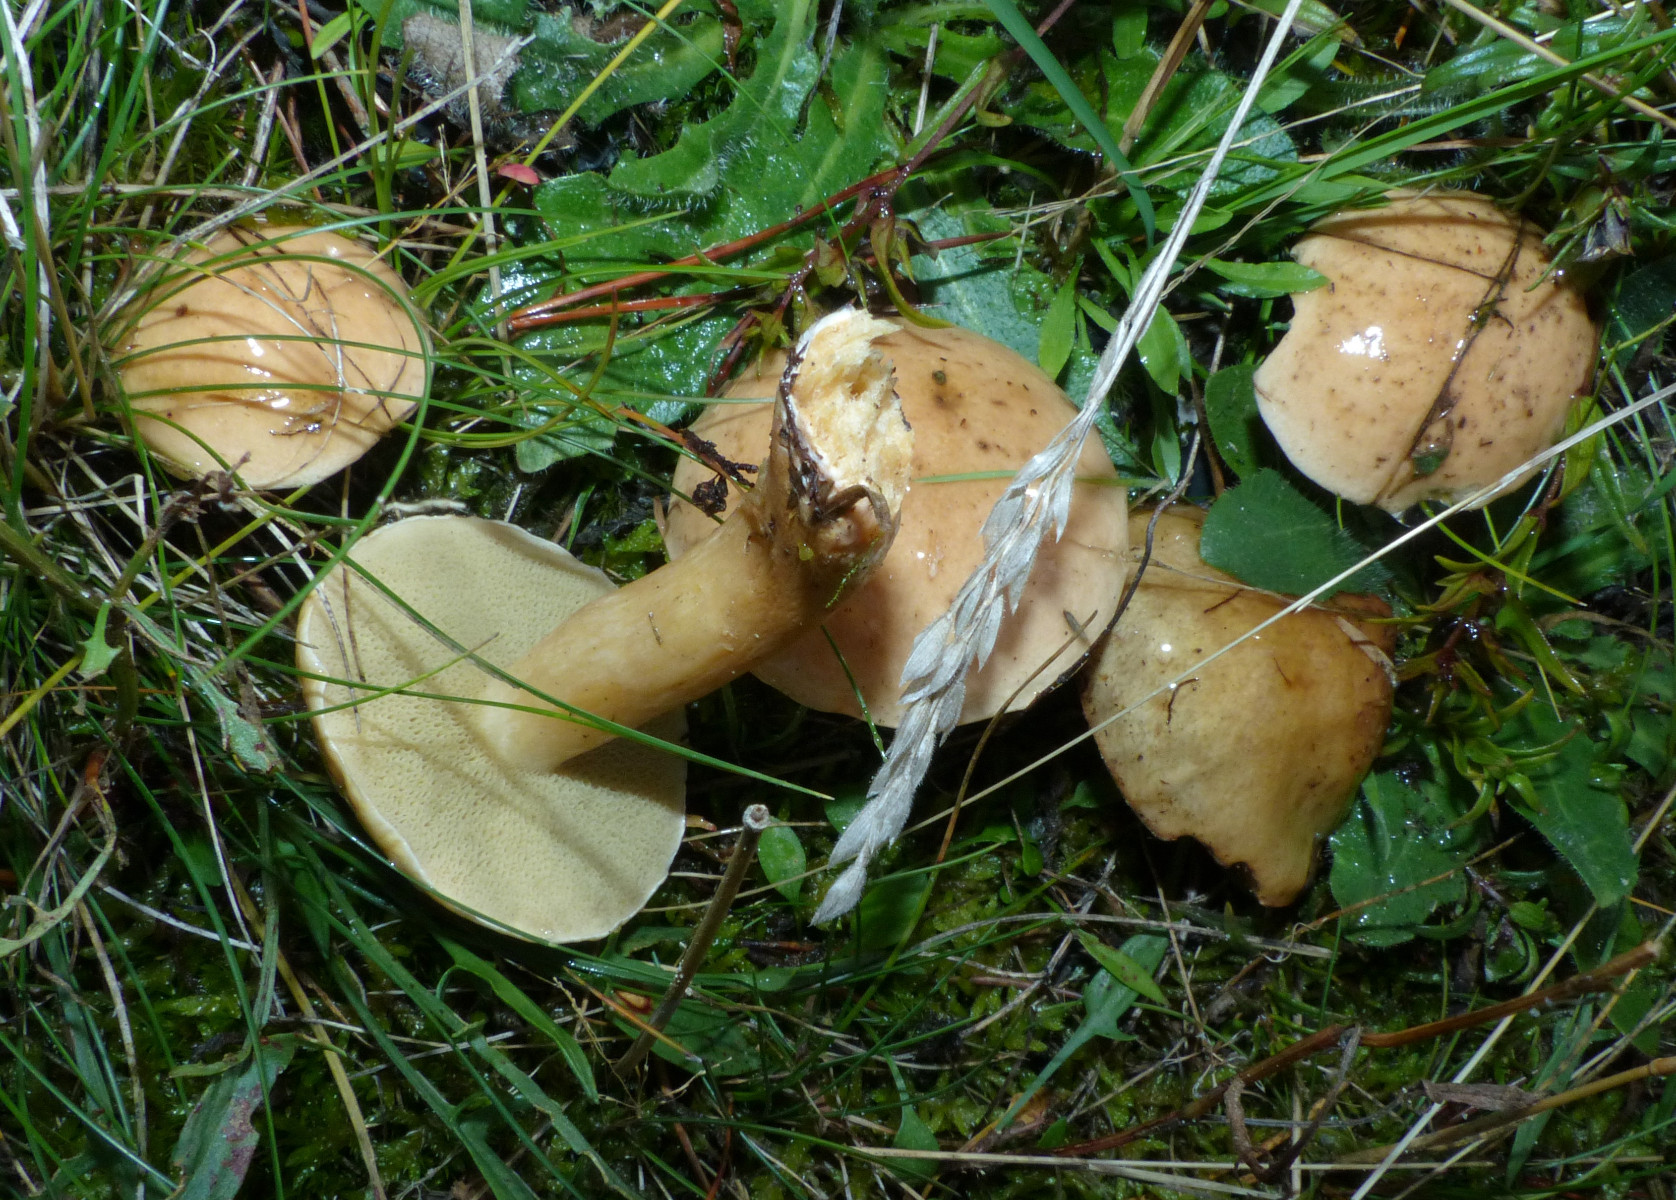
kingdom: Fungi
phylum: Basidiomycota
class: Agaricomycetes
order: Boletales
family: Suillaceae
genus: Suillus
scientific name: Suillus bovinus
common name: grovporet slimrørhat
